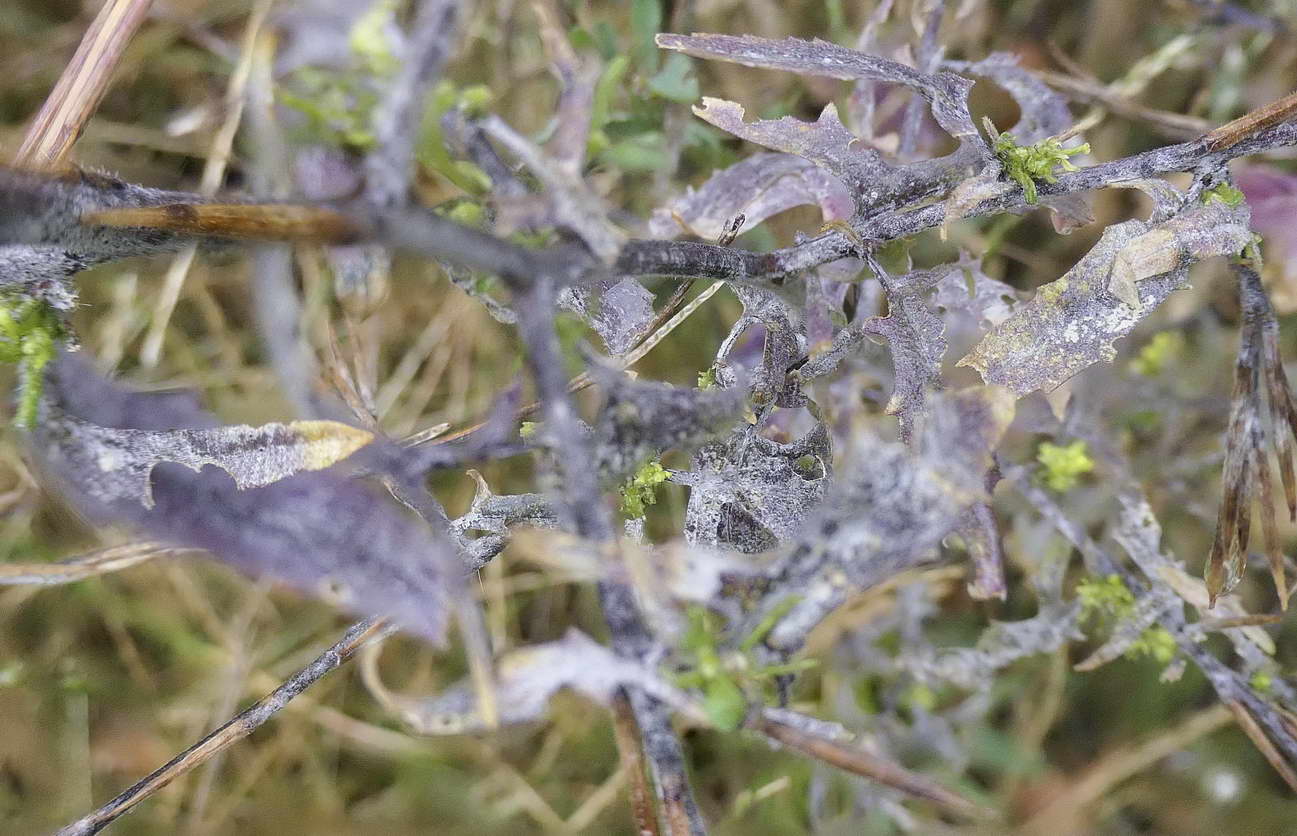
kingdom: Fungi
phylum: Ascomycota
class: Leotiomycetes
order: Helotiales
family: Erysiphaceae
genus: Erysiphe
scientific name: Erysiphe cruciferarum
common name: korsblomst-meldug
